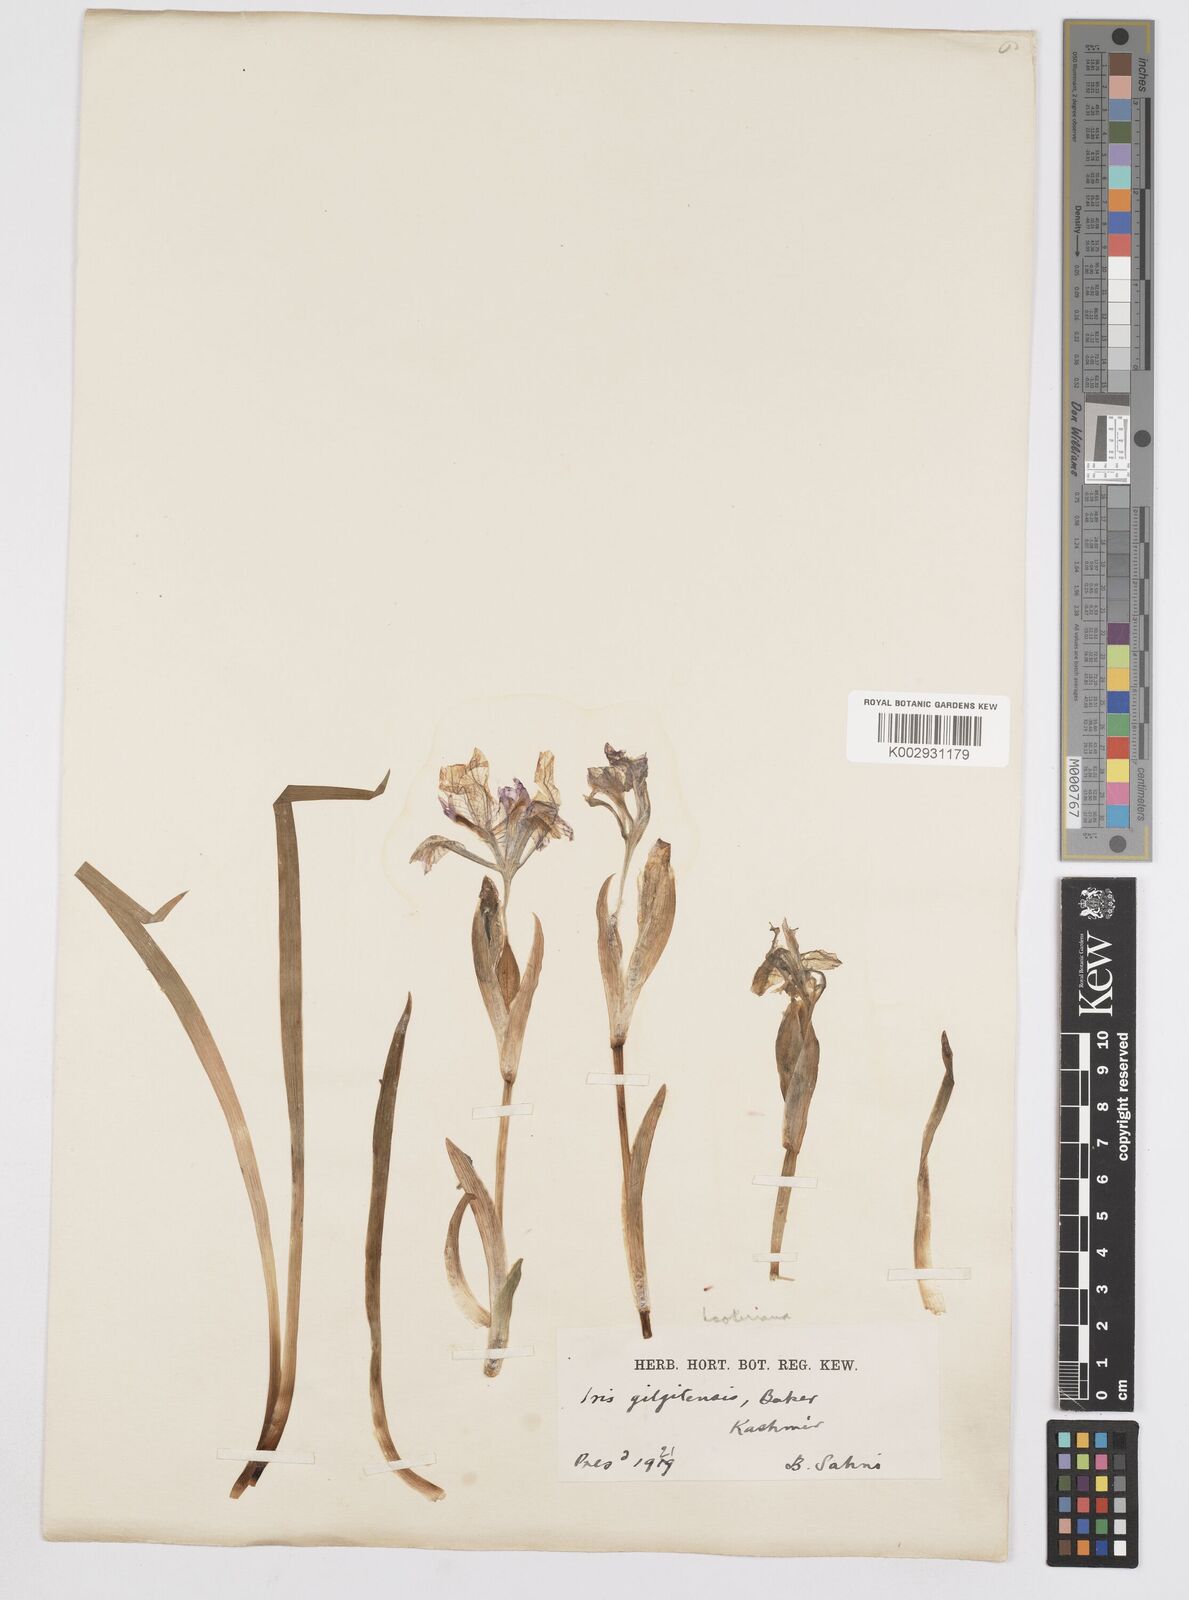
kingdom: Plantae
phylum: Tracheophyta
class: Liliopsida
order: Asparagales
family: Iridaceae
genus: Iris
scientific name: Iris hookeriana
